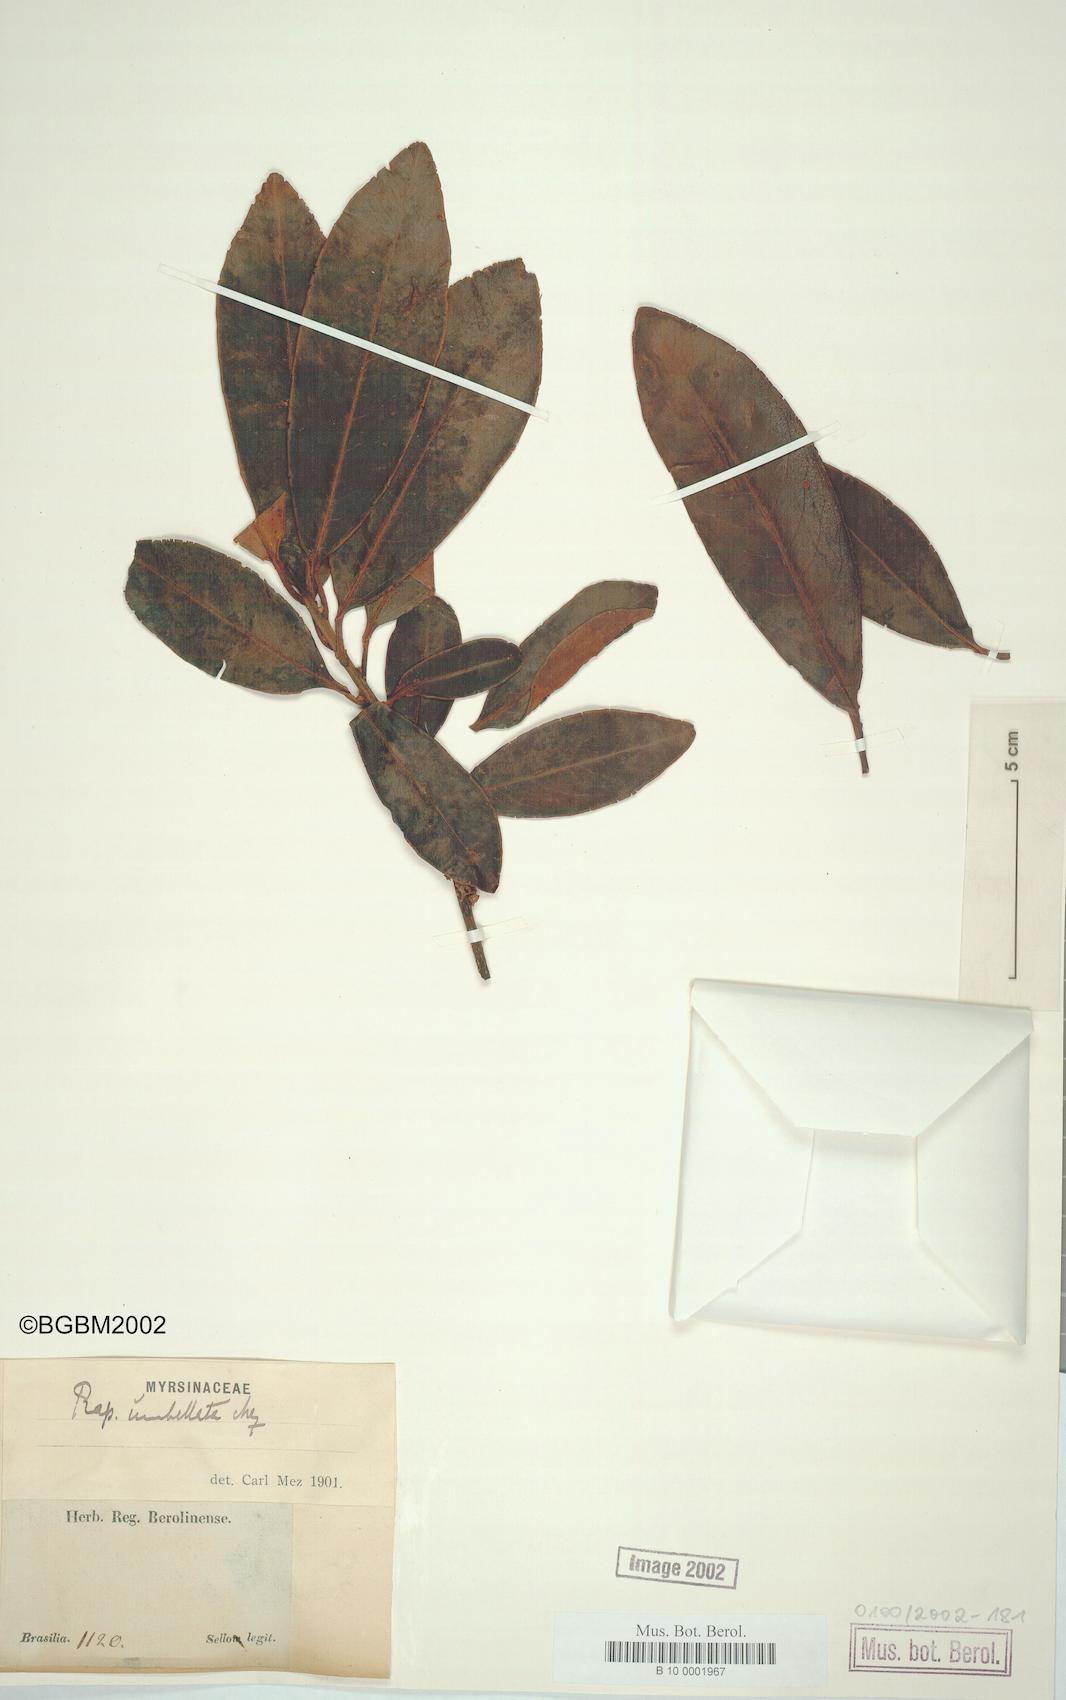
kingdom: Plantae
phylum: Tracheophyta
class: Magnoliopsida
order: Ericales
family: Primulaceae
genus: Myrsine
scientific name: Myrsine umbellata
